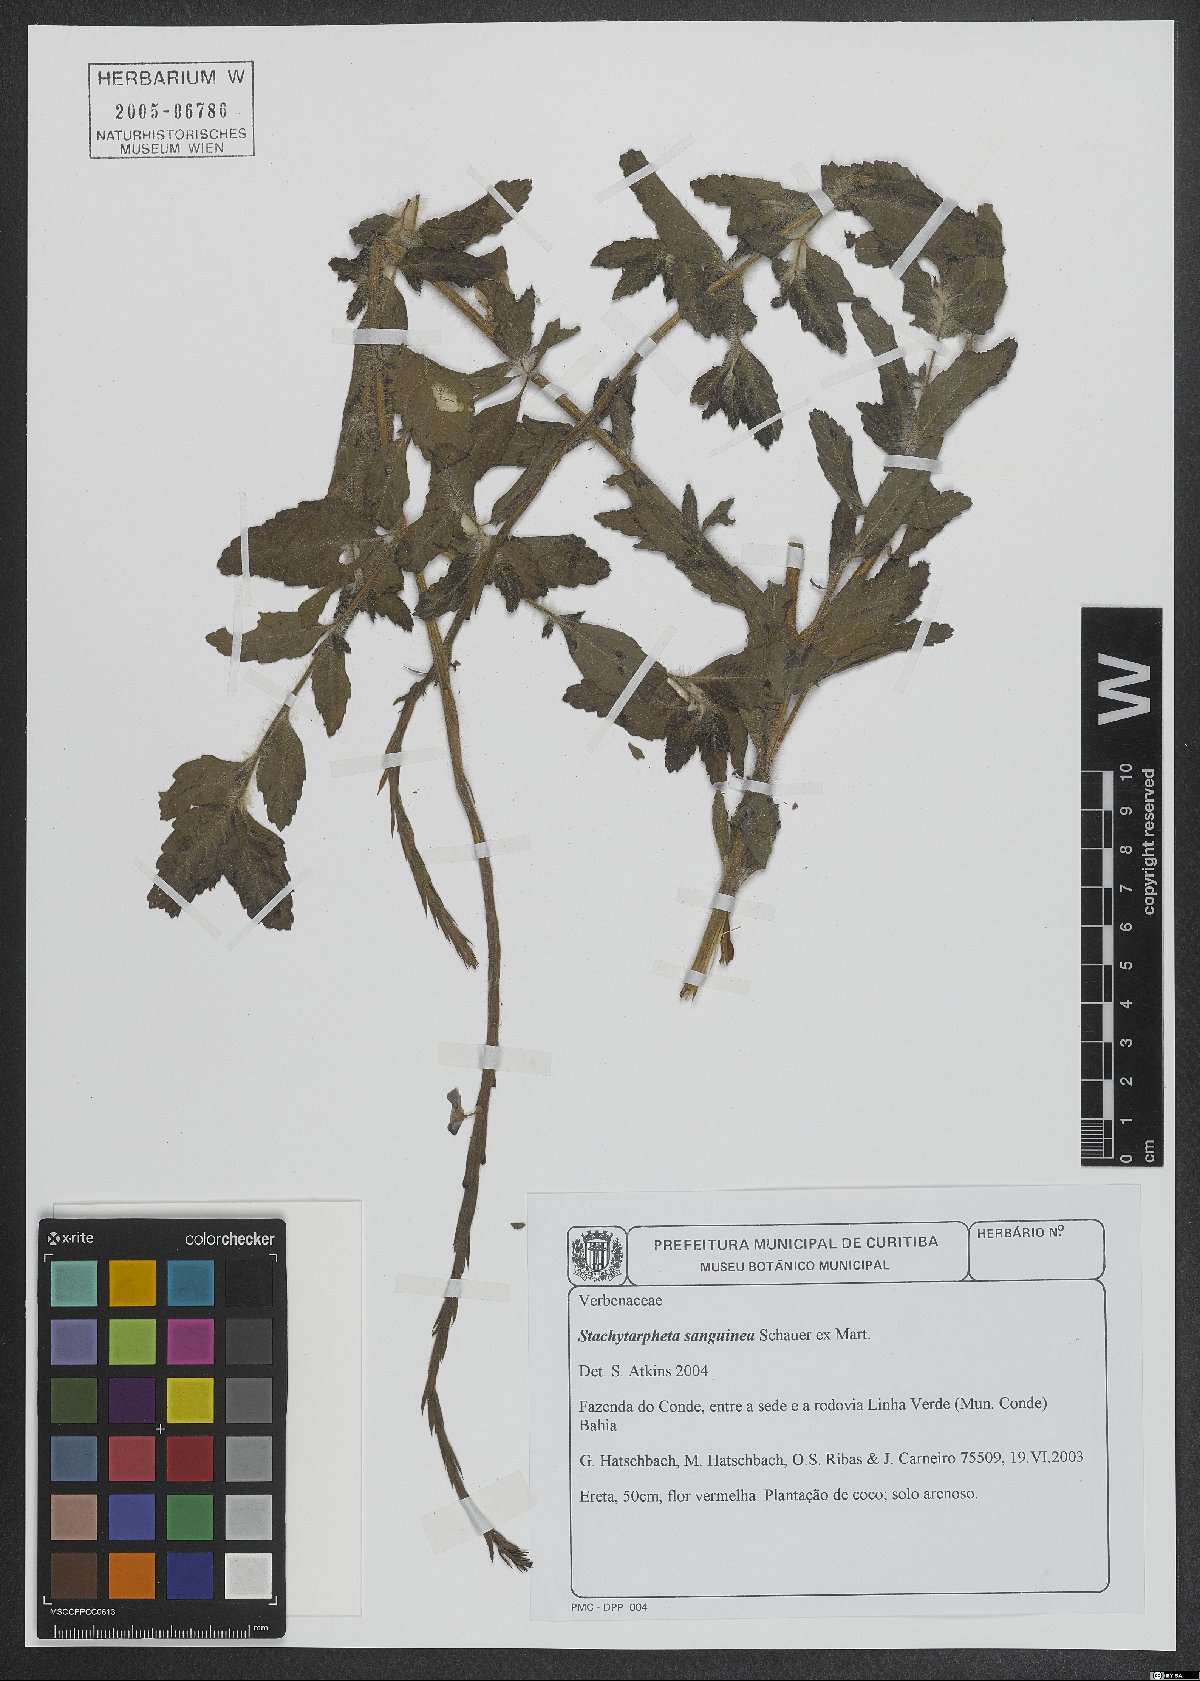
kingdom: Plantae
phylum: Tracheophyta
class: Magnoliopsida
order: Lamiales
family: Verbenaceae
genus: Stachytarpheta
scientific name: Stachytarpheta microphylla
